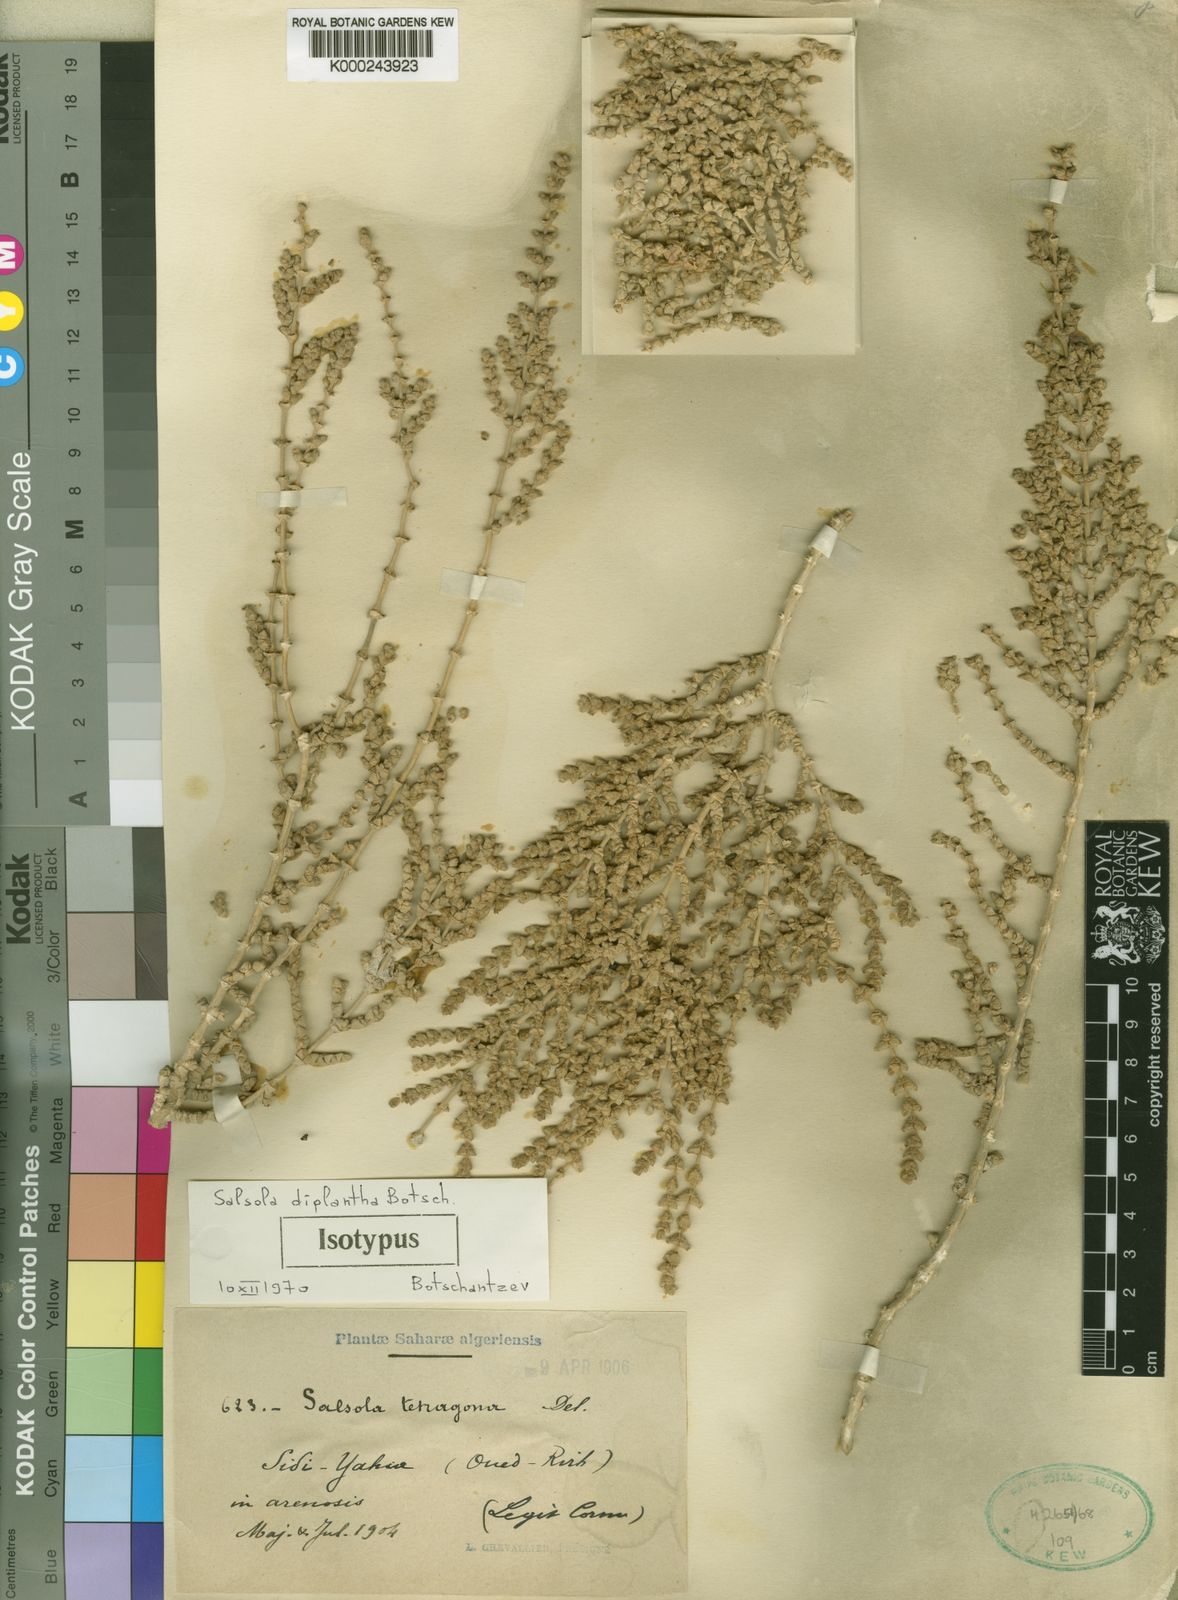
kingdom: Plantae
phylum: Tracheophyta
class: Magnoliopsida
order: Caryophyllales
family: Amaranthaceae
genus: Caroxylon
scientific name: Caroxylon tetrandrum
